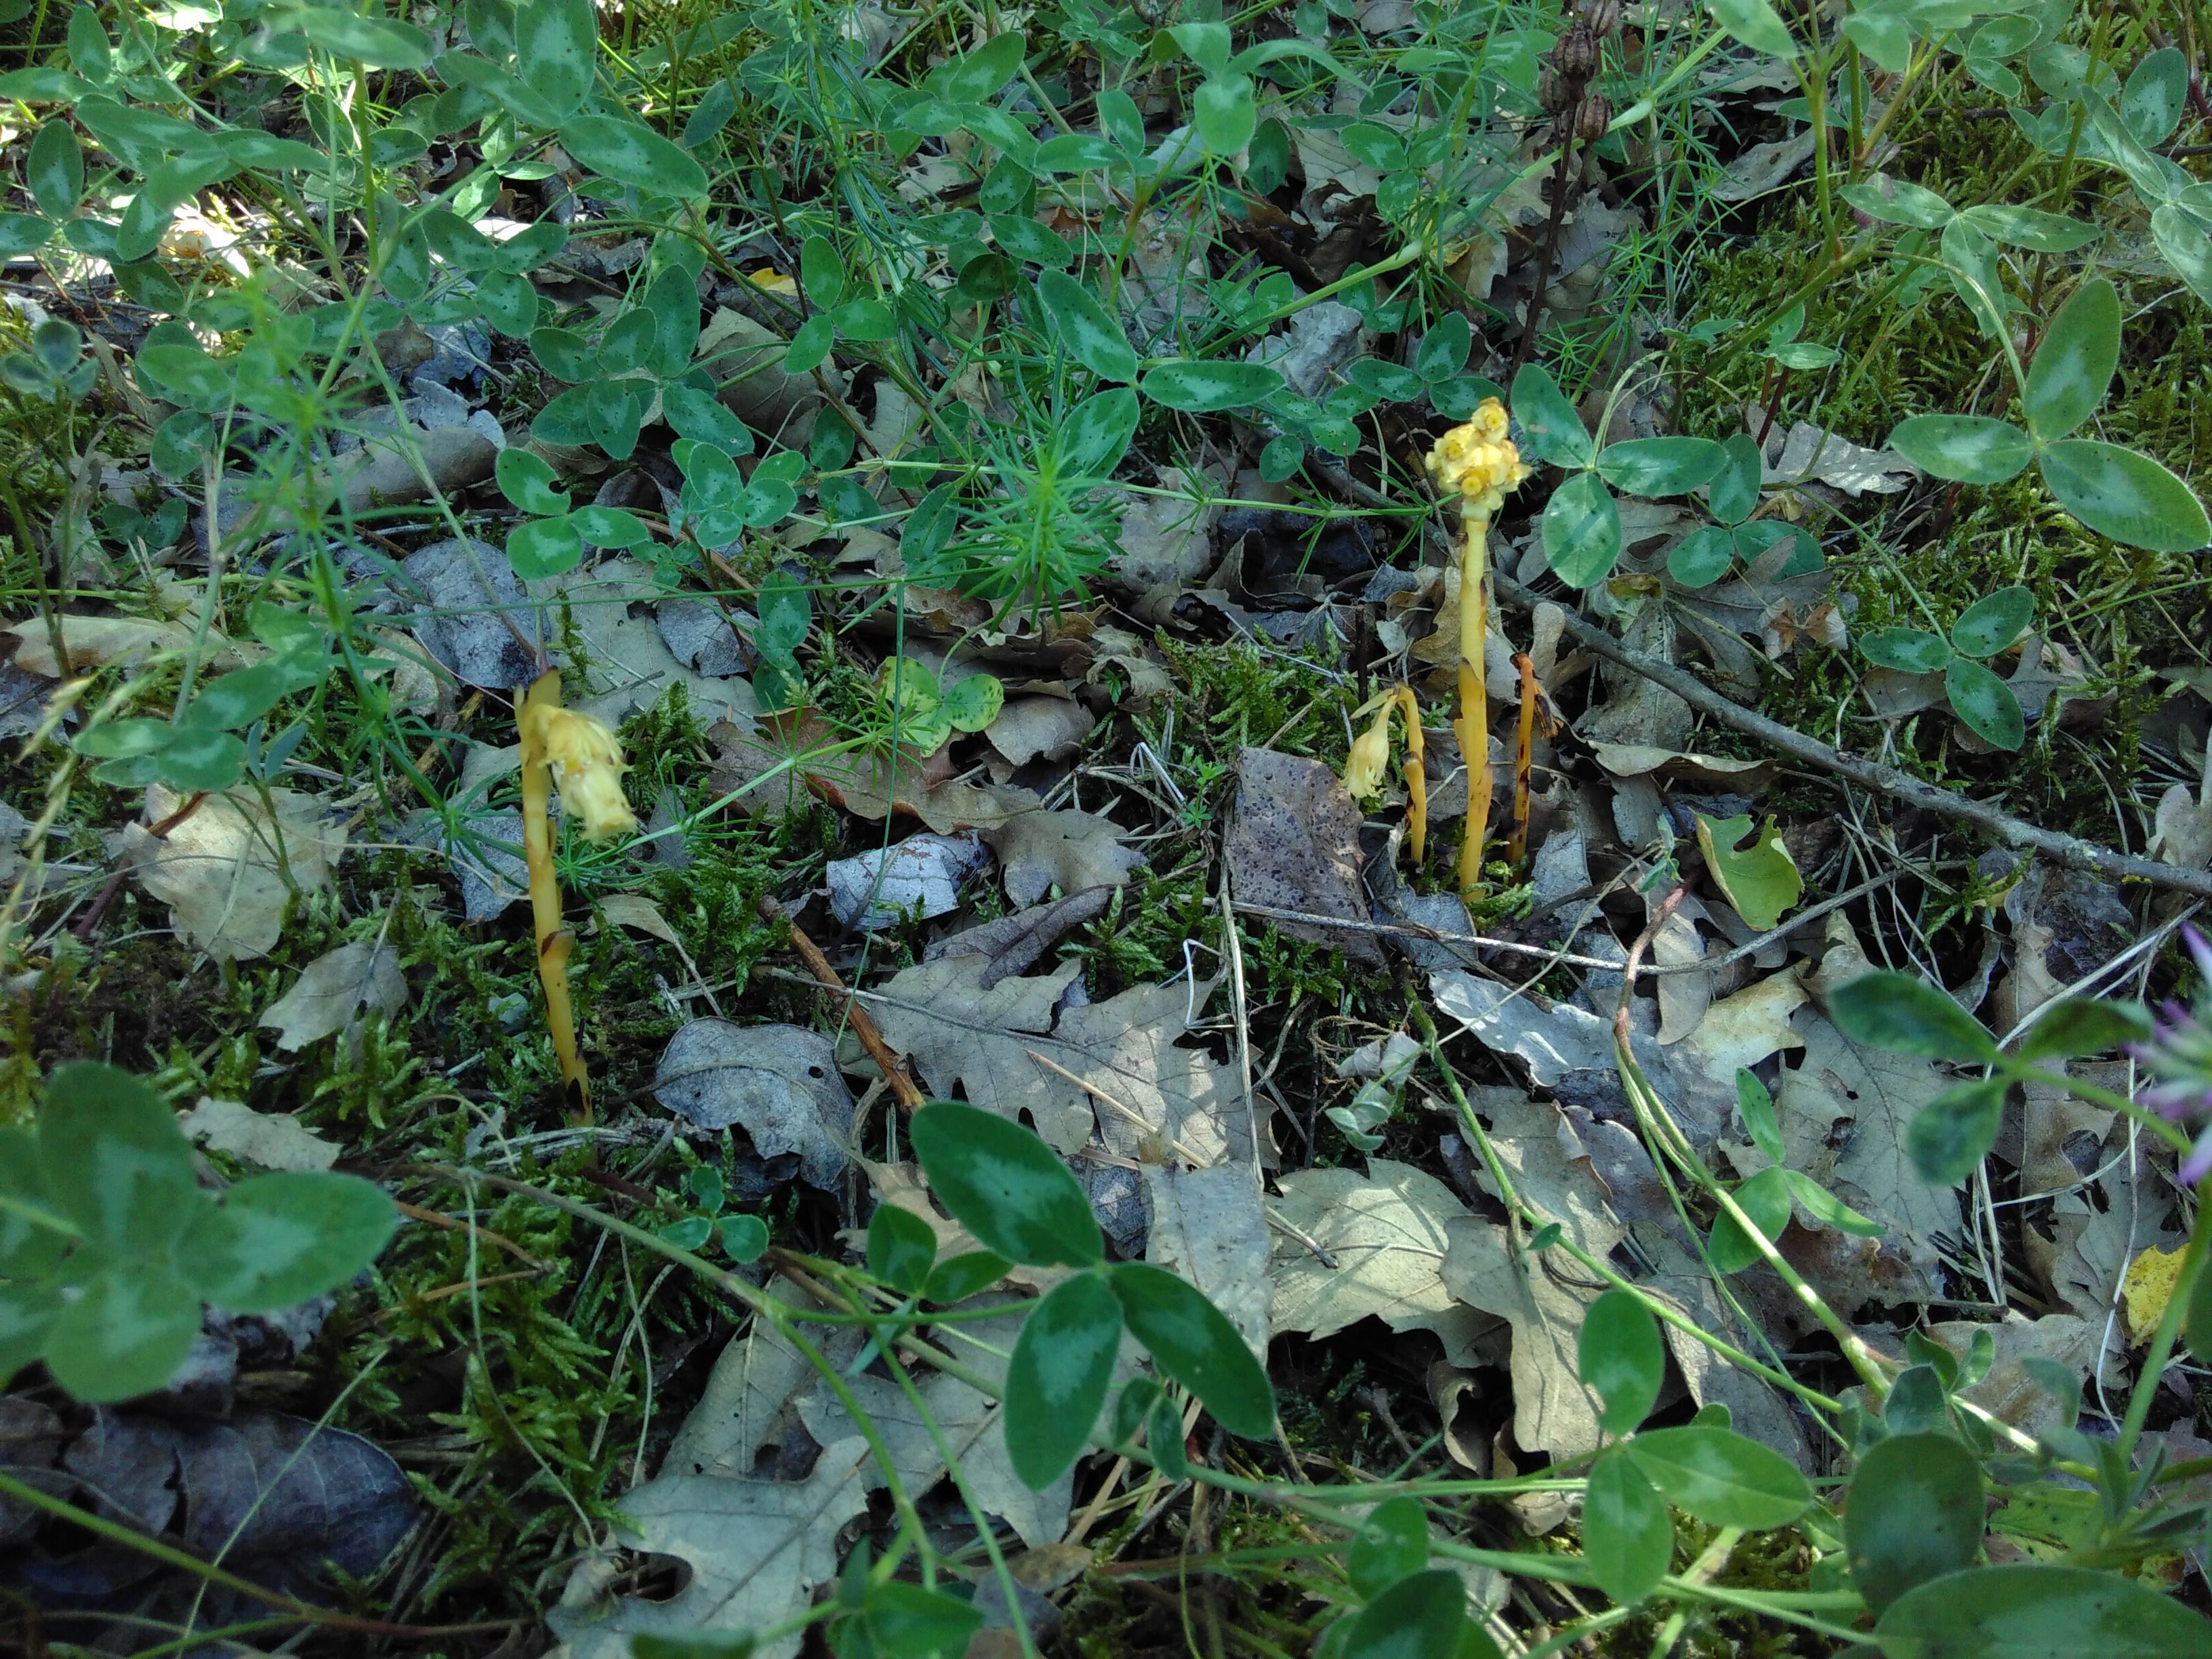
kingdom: Plantae
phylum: Tracheophyta
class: Magnoliopsida
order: Ericales
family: Ericaceae
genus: Hypopitys
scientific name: Hypopitys monotropa
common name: Yellow bird's-nest
